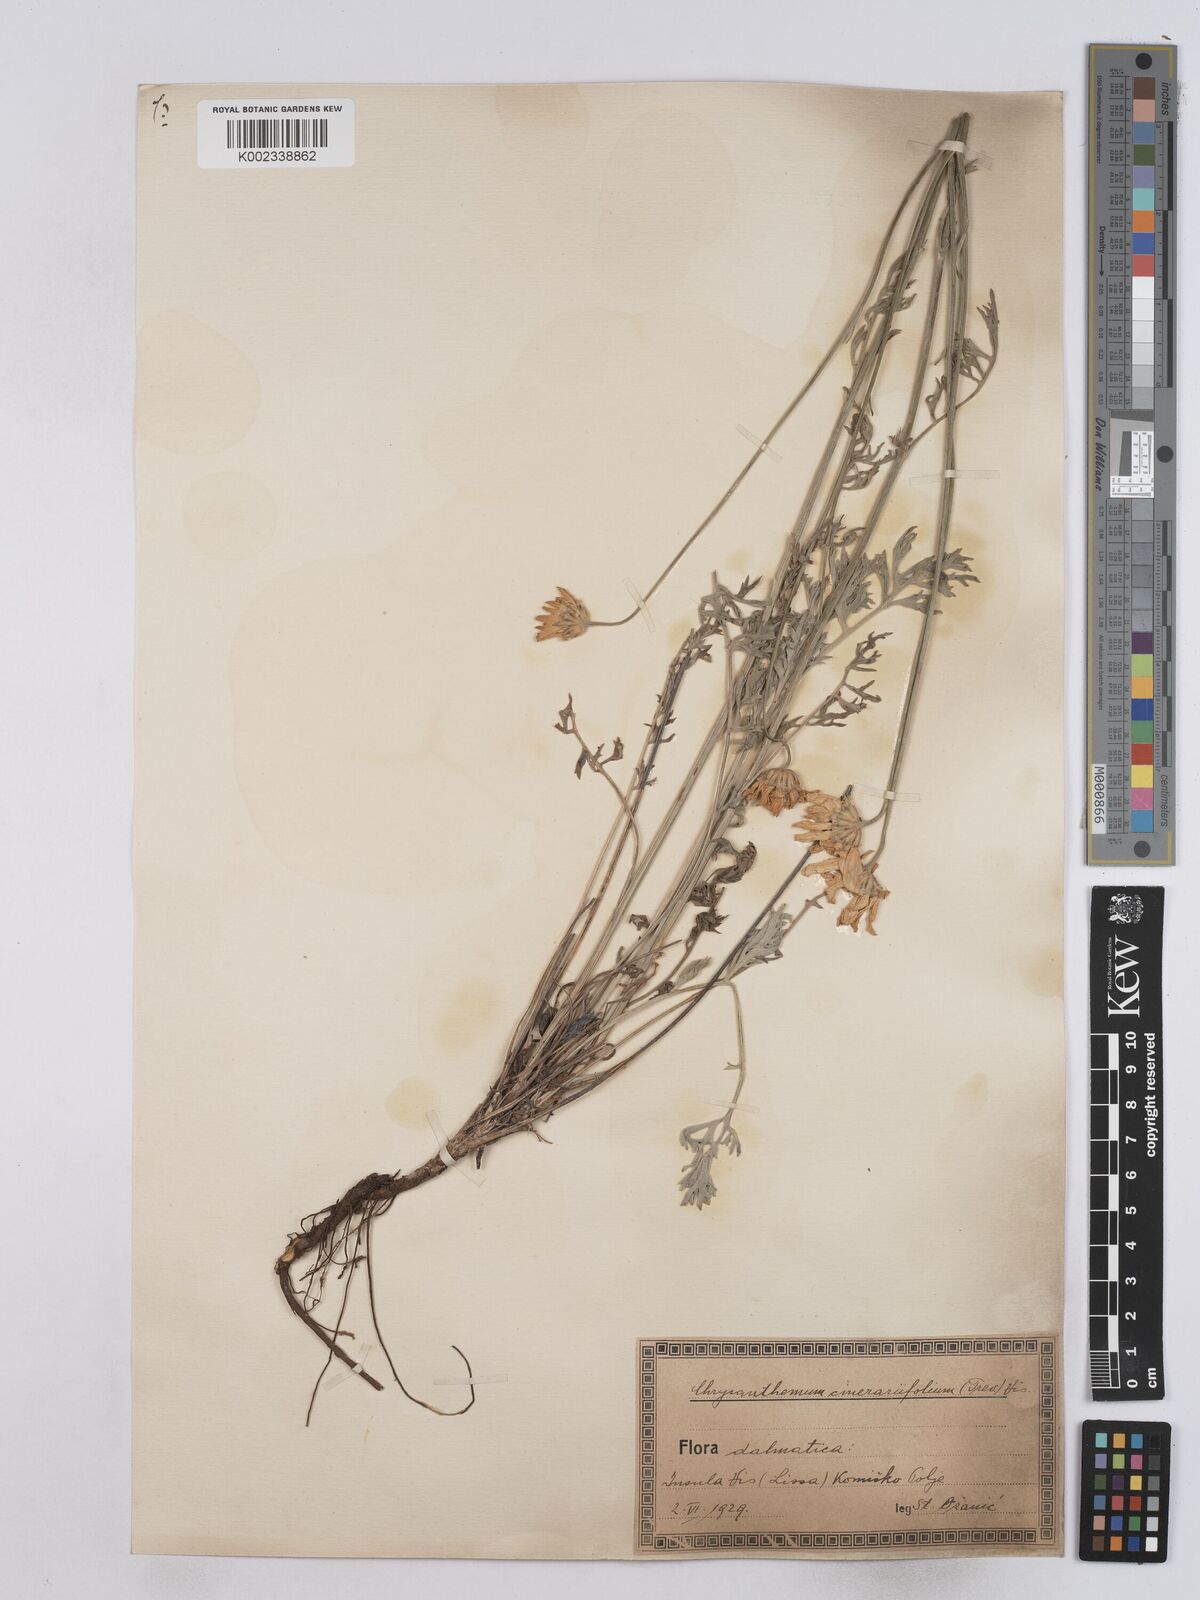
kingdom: Plantae
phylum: Tracheophyta
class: Magnoliopsida
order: Asterales
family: Asteraceae
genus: Tanacetum
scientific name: Tanacetum cinerariifolium
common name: Dalmatian pyrethrum
